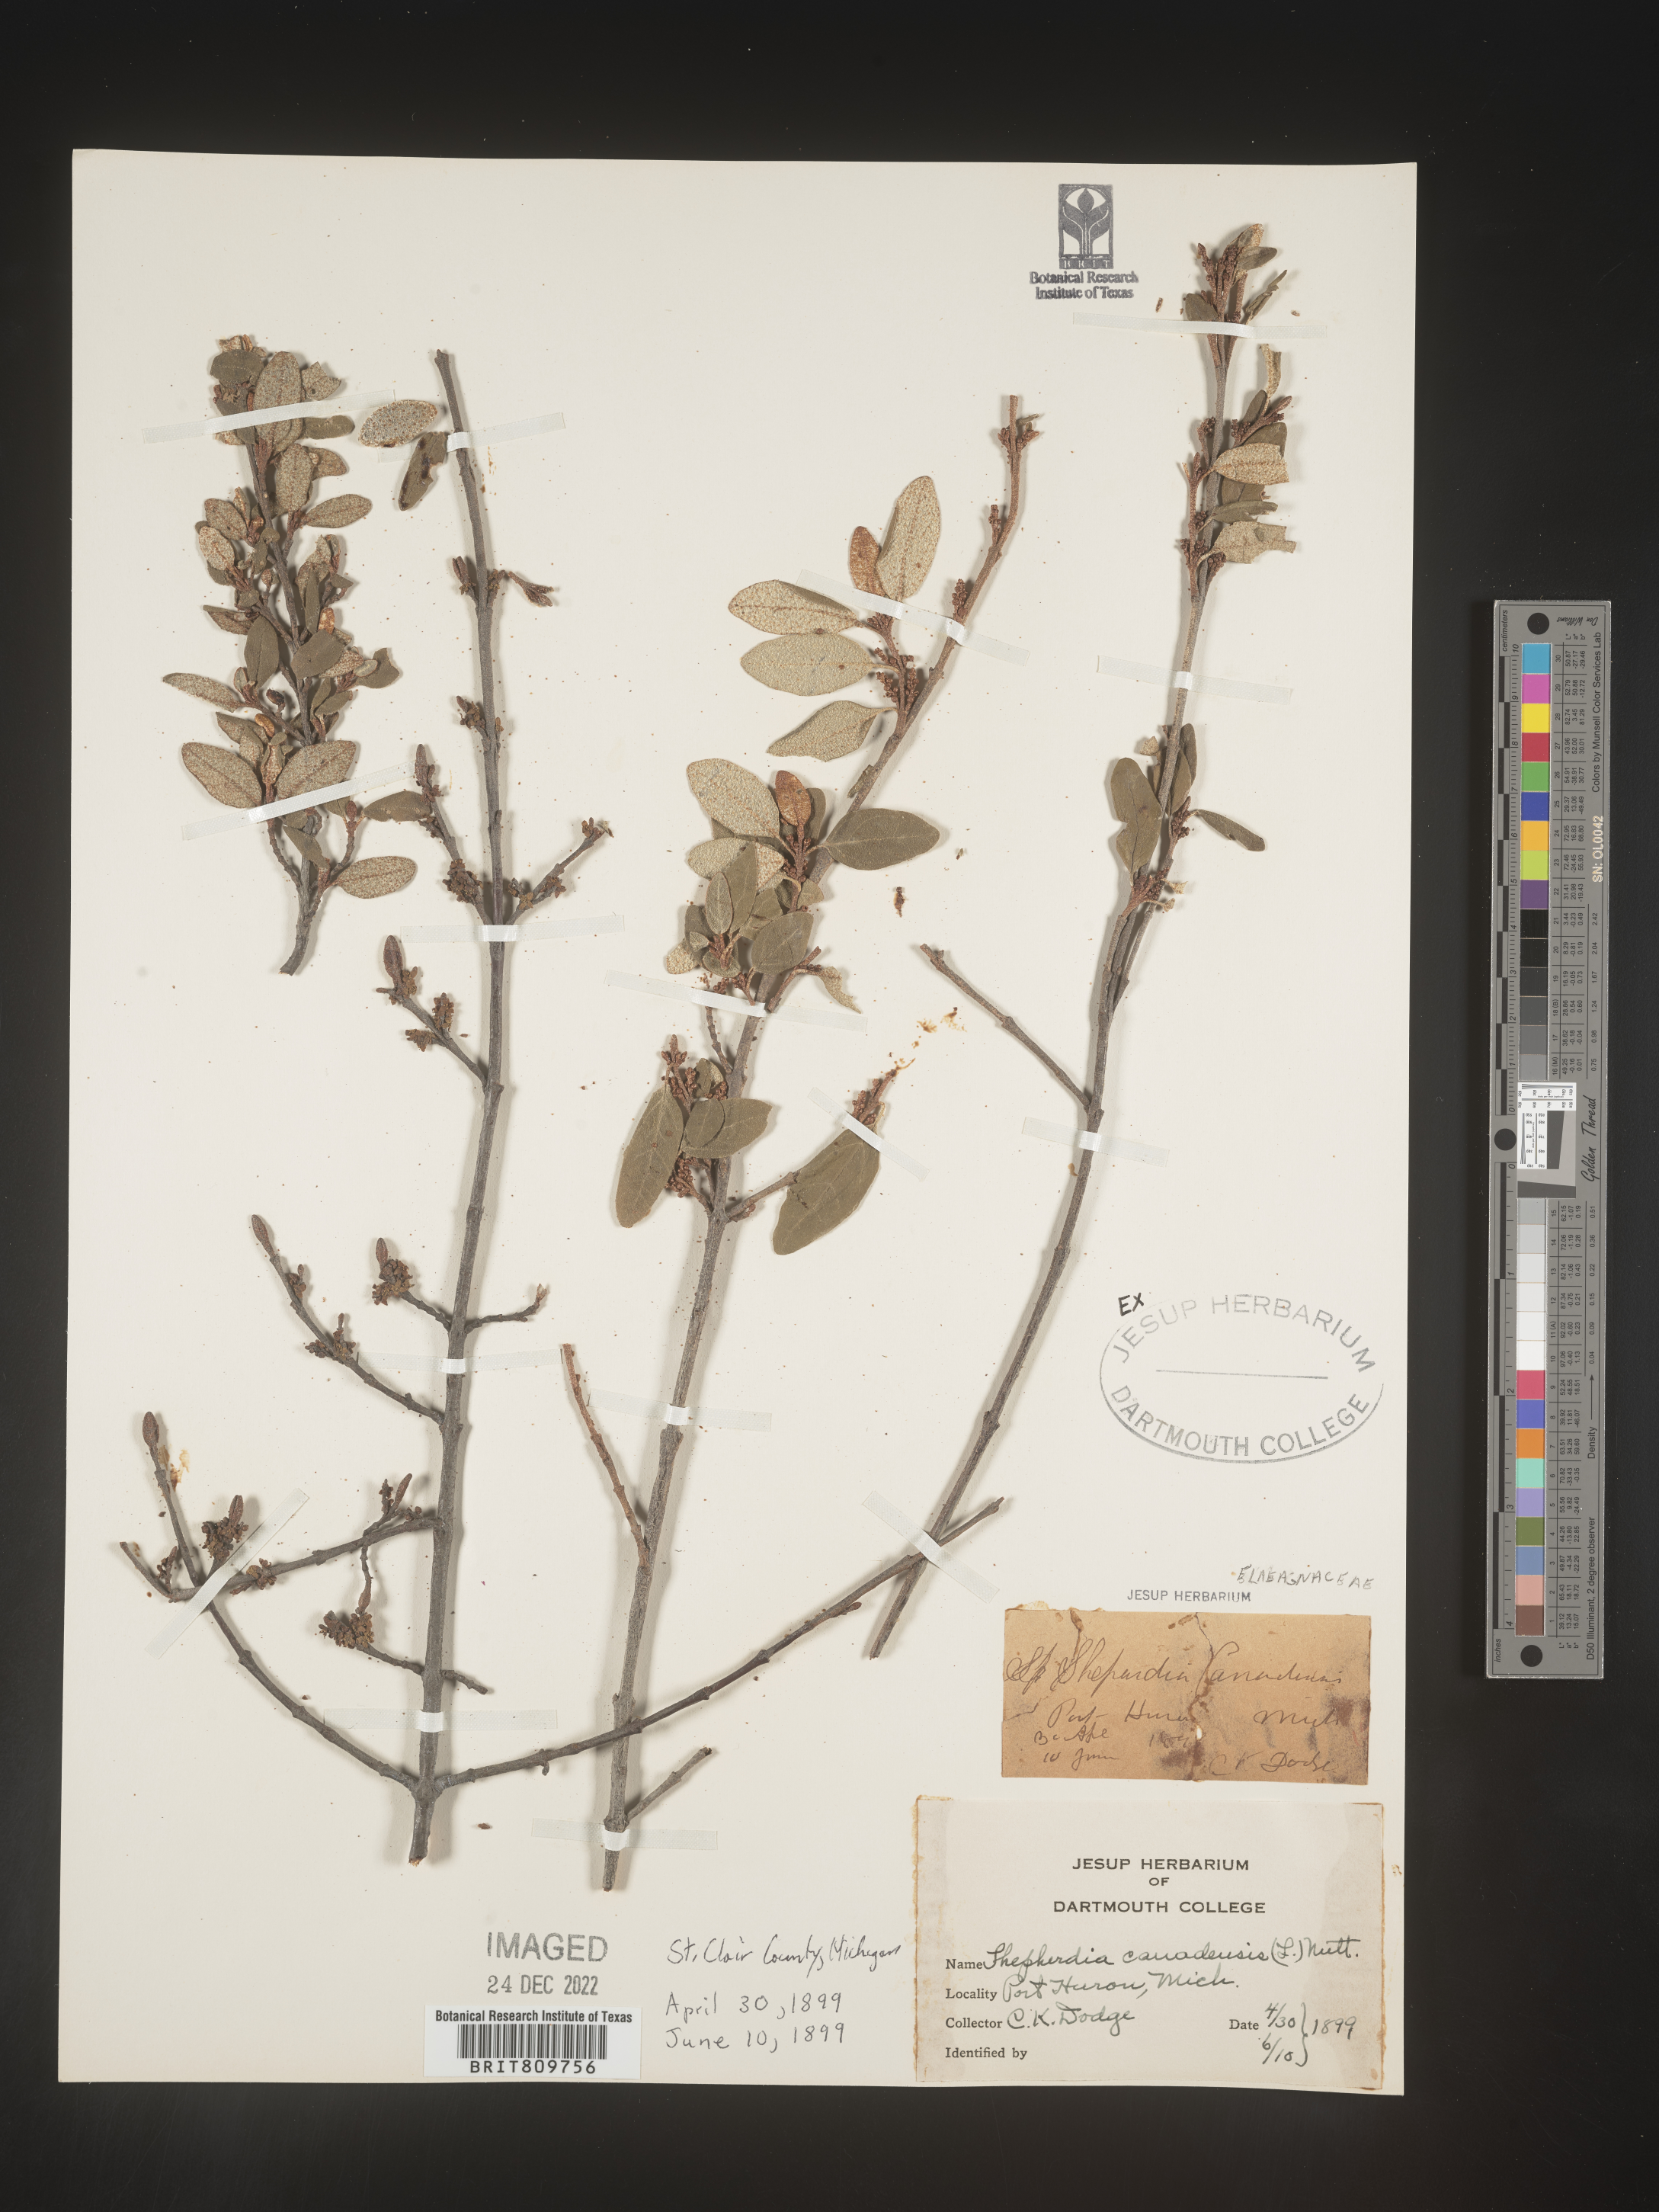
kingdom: Plantae
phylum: Tracheophyta
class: Magnoliopsida
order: Rosales
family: Elaeagnaceae
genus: Shepherdia
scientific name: Shepherdia canadensis
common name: Soapberry
